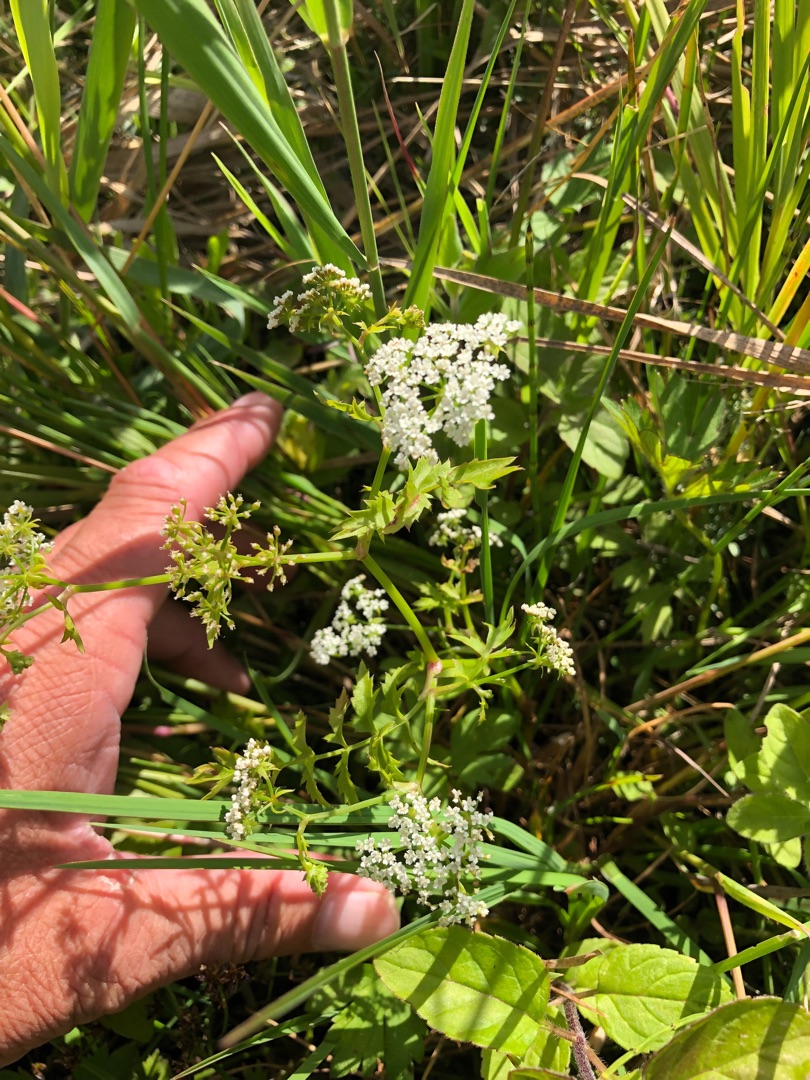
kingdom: Plantae
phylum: Tracheophyta
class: Magnoliopsida
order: Apiales
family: Apiaceae
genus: Berula
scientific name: Berula erecta
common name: Sideskærm
